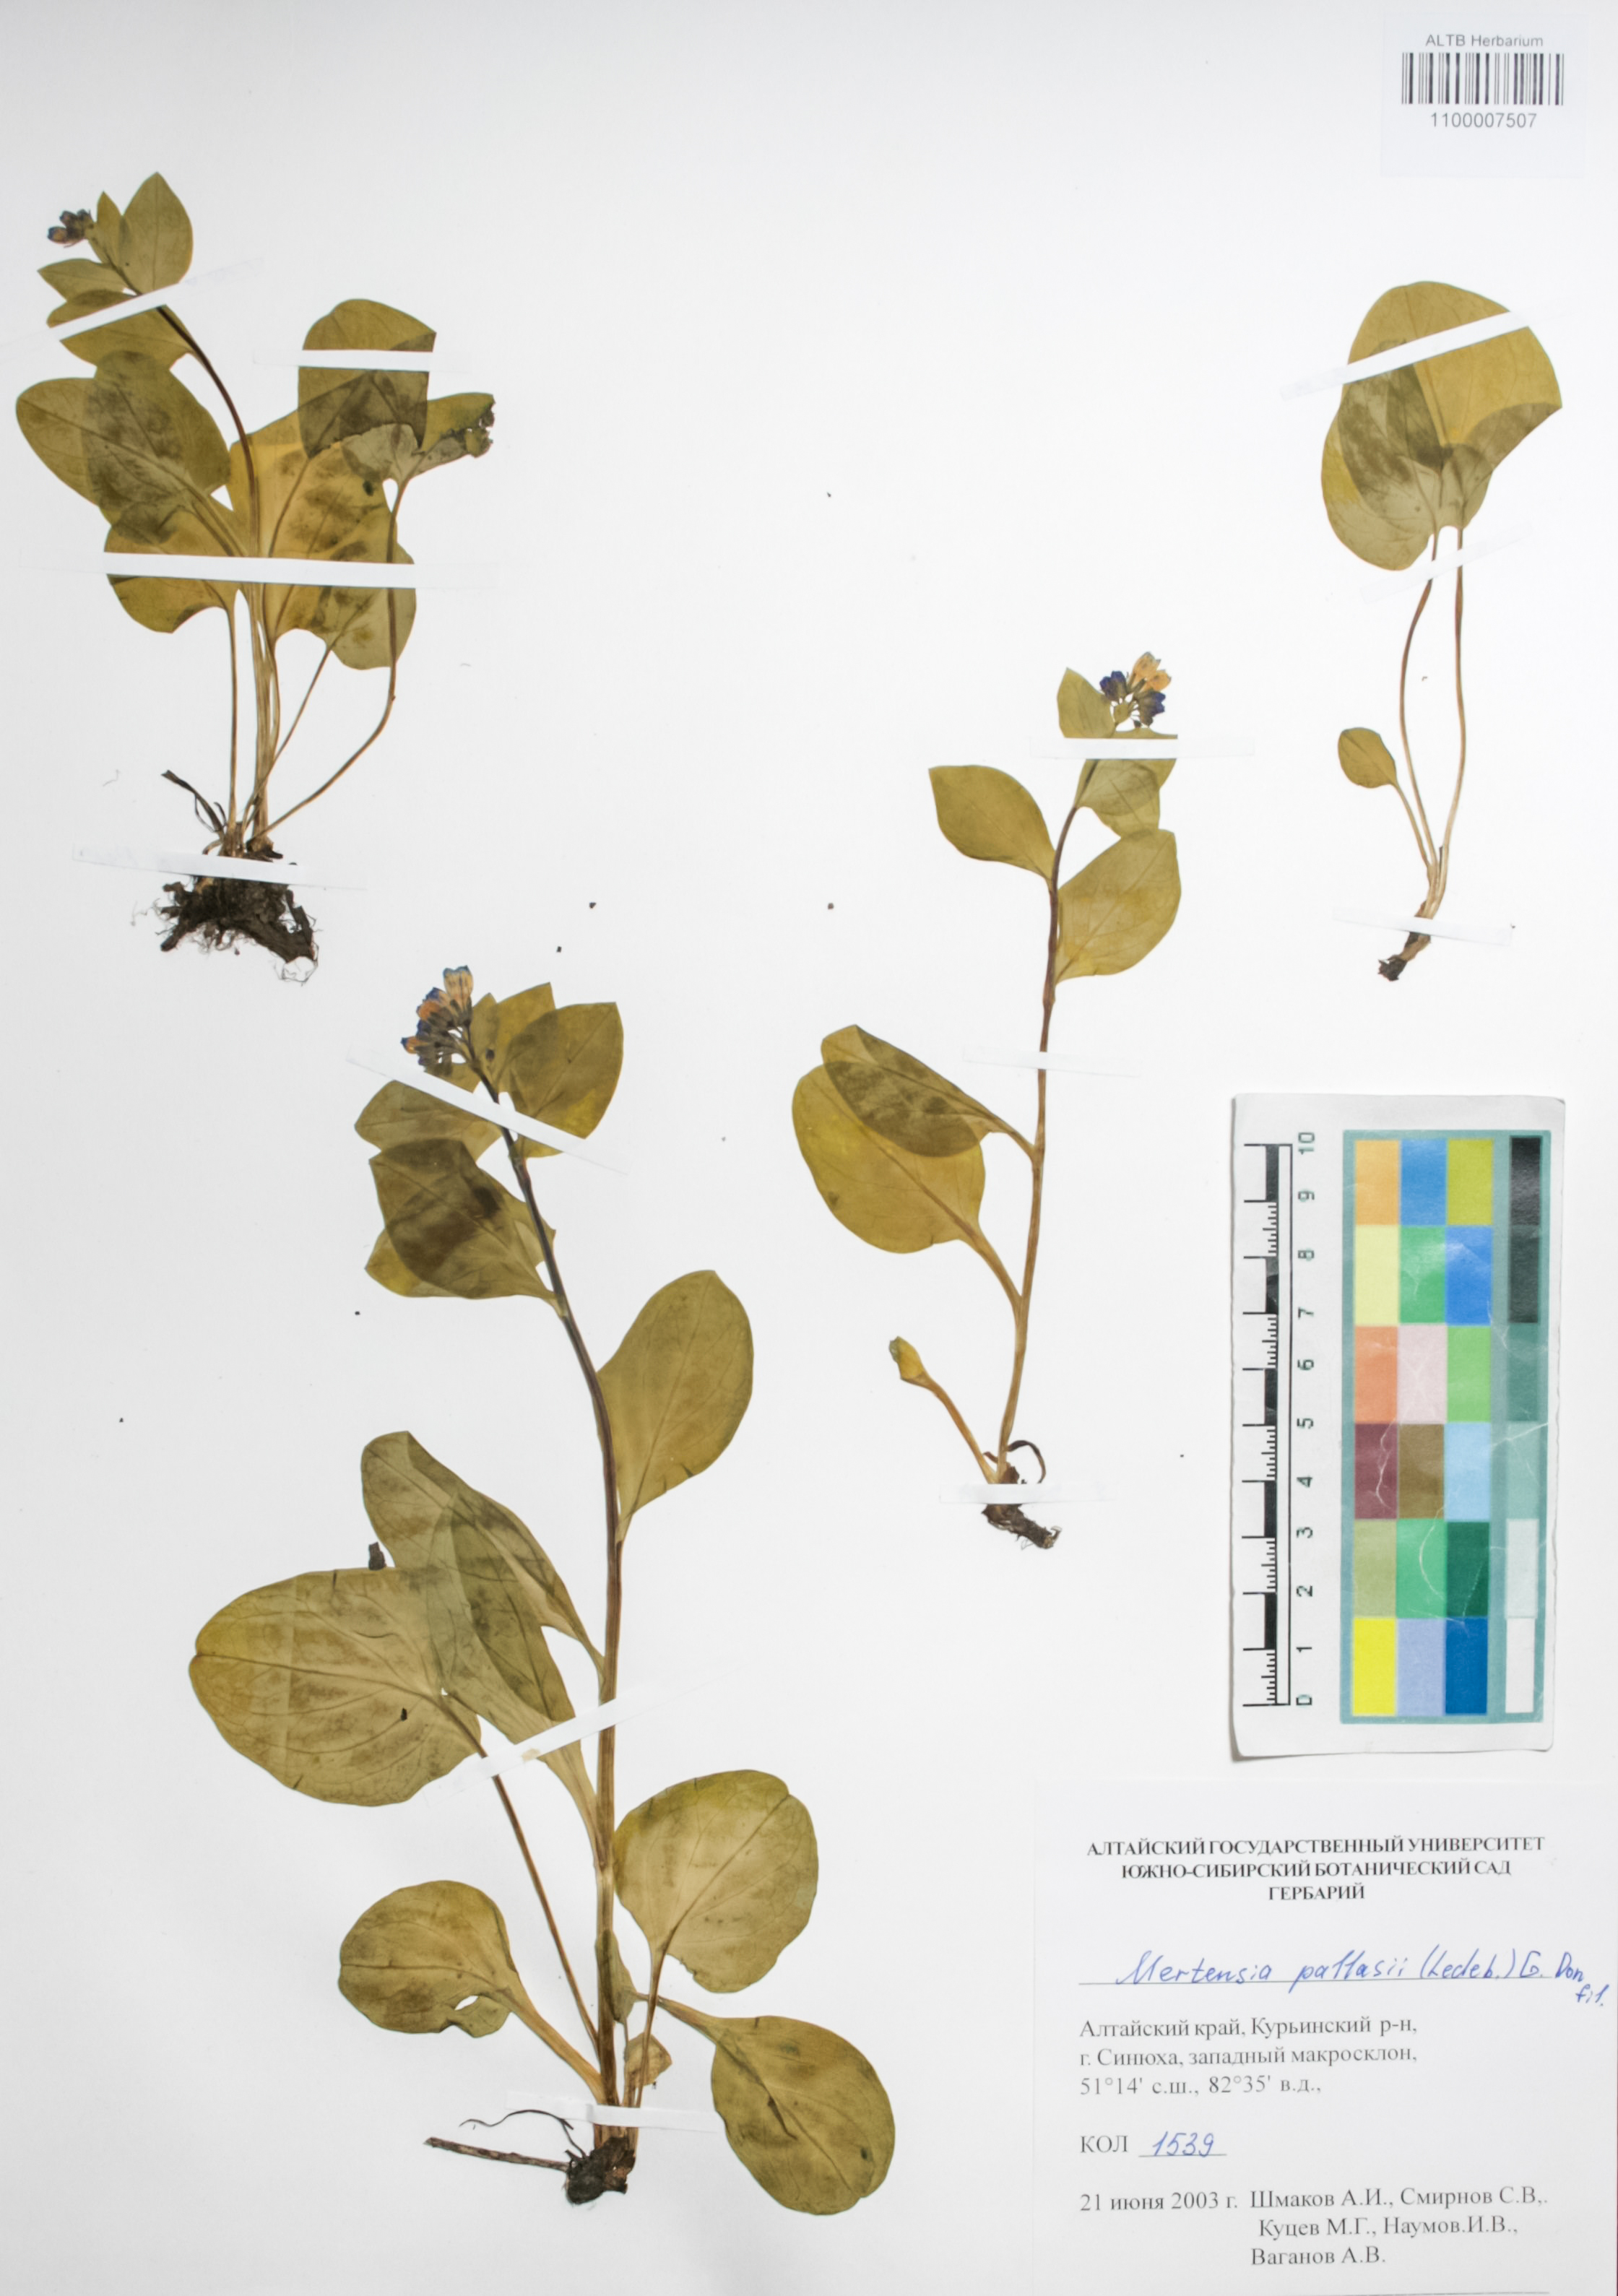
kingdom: Plantae
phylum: Tracheophyta
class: Magnoliopsida
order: Boraginales
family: Boraginaceae
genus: Mertensia
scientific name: Mertensia pallasii
